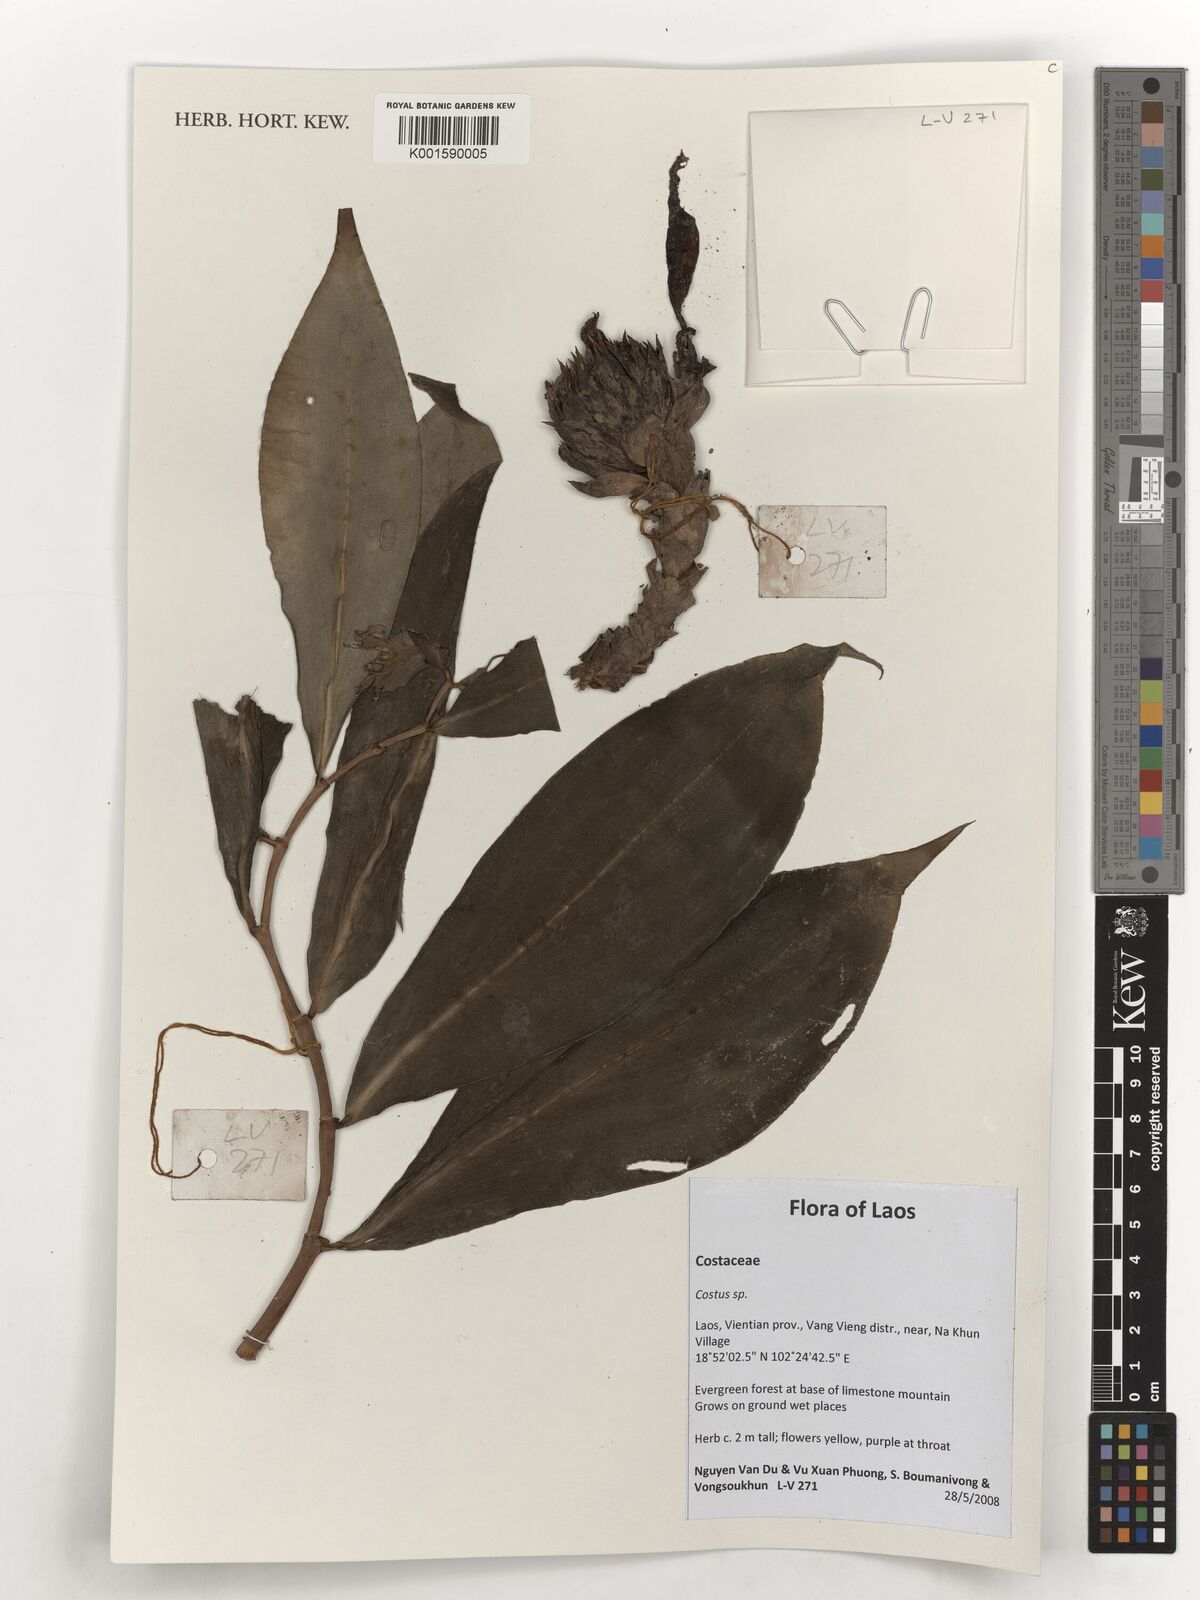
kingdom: Plantae
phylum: Tracheophyta
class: Liliopsida
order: Zingiberales
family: Costaceae
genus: Costus
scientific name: Costus
